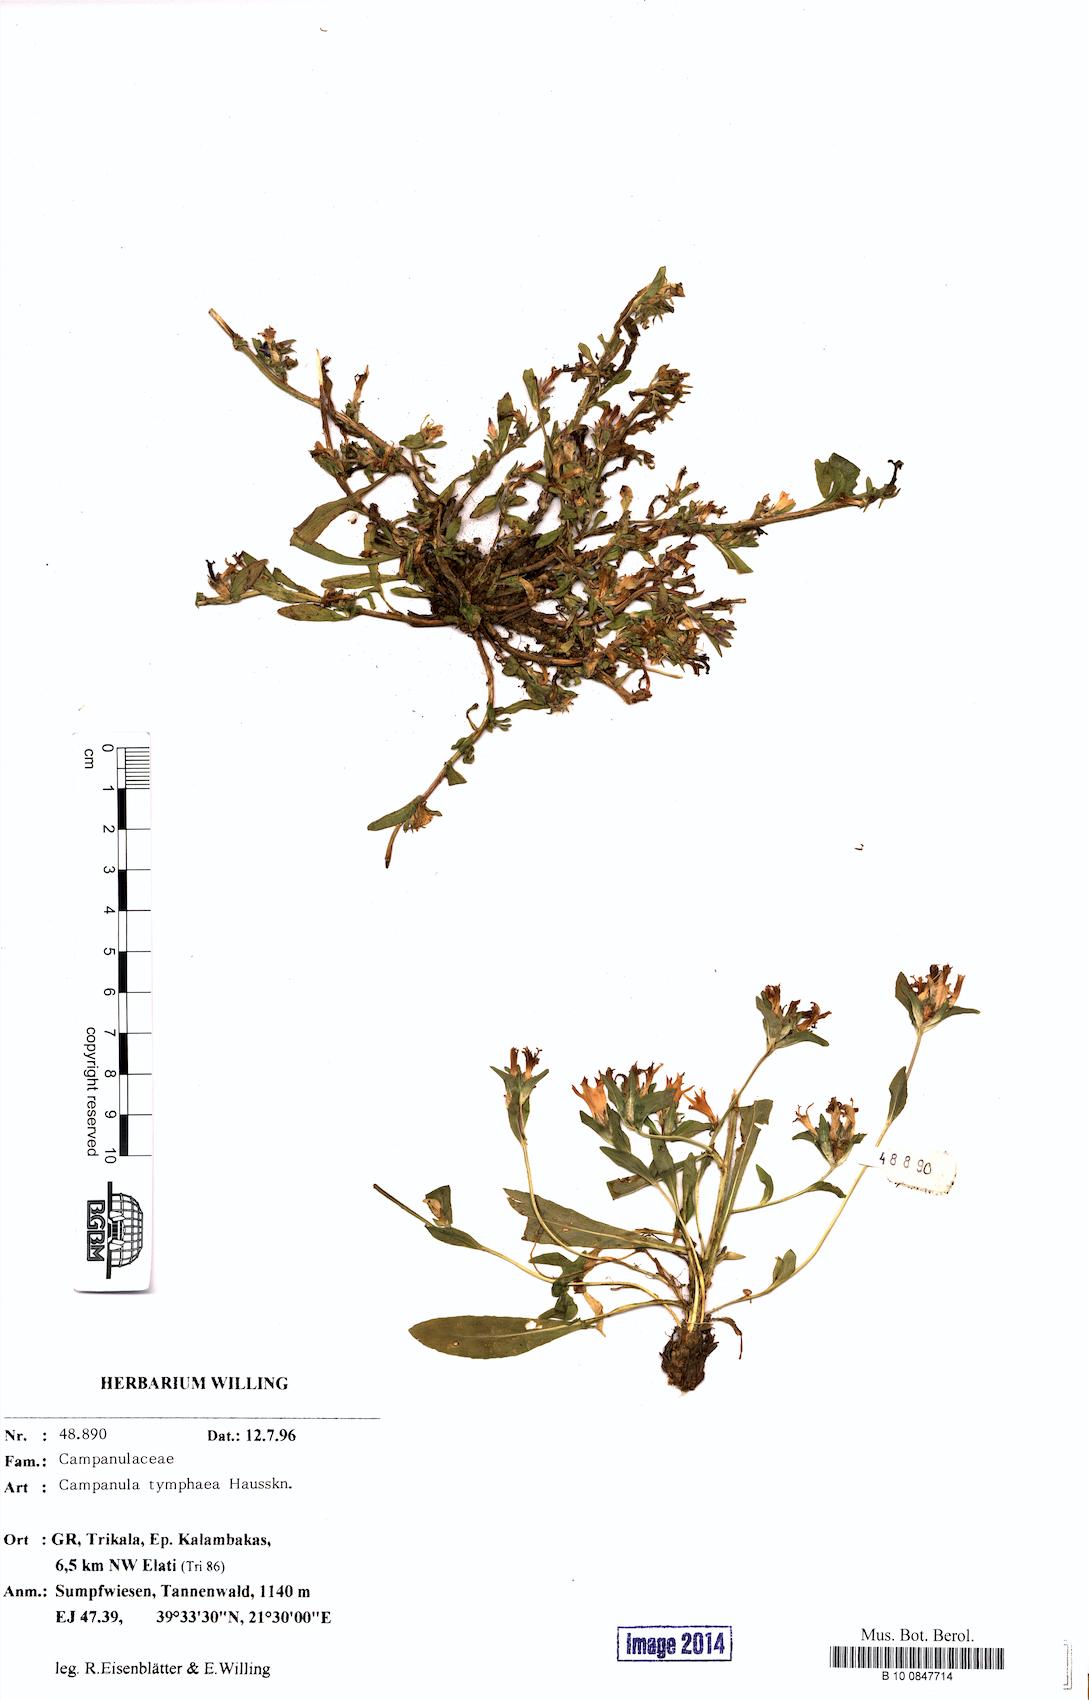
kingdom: Plantae
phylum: Tracheophyta
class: Magnoliopsida
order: Asterales
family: Campanulaceae
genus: Campanula
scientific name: Campanula tymphaea
